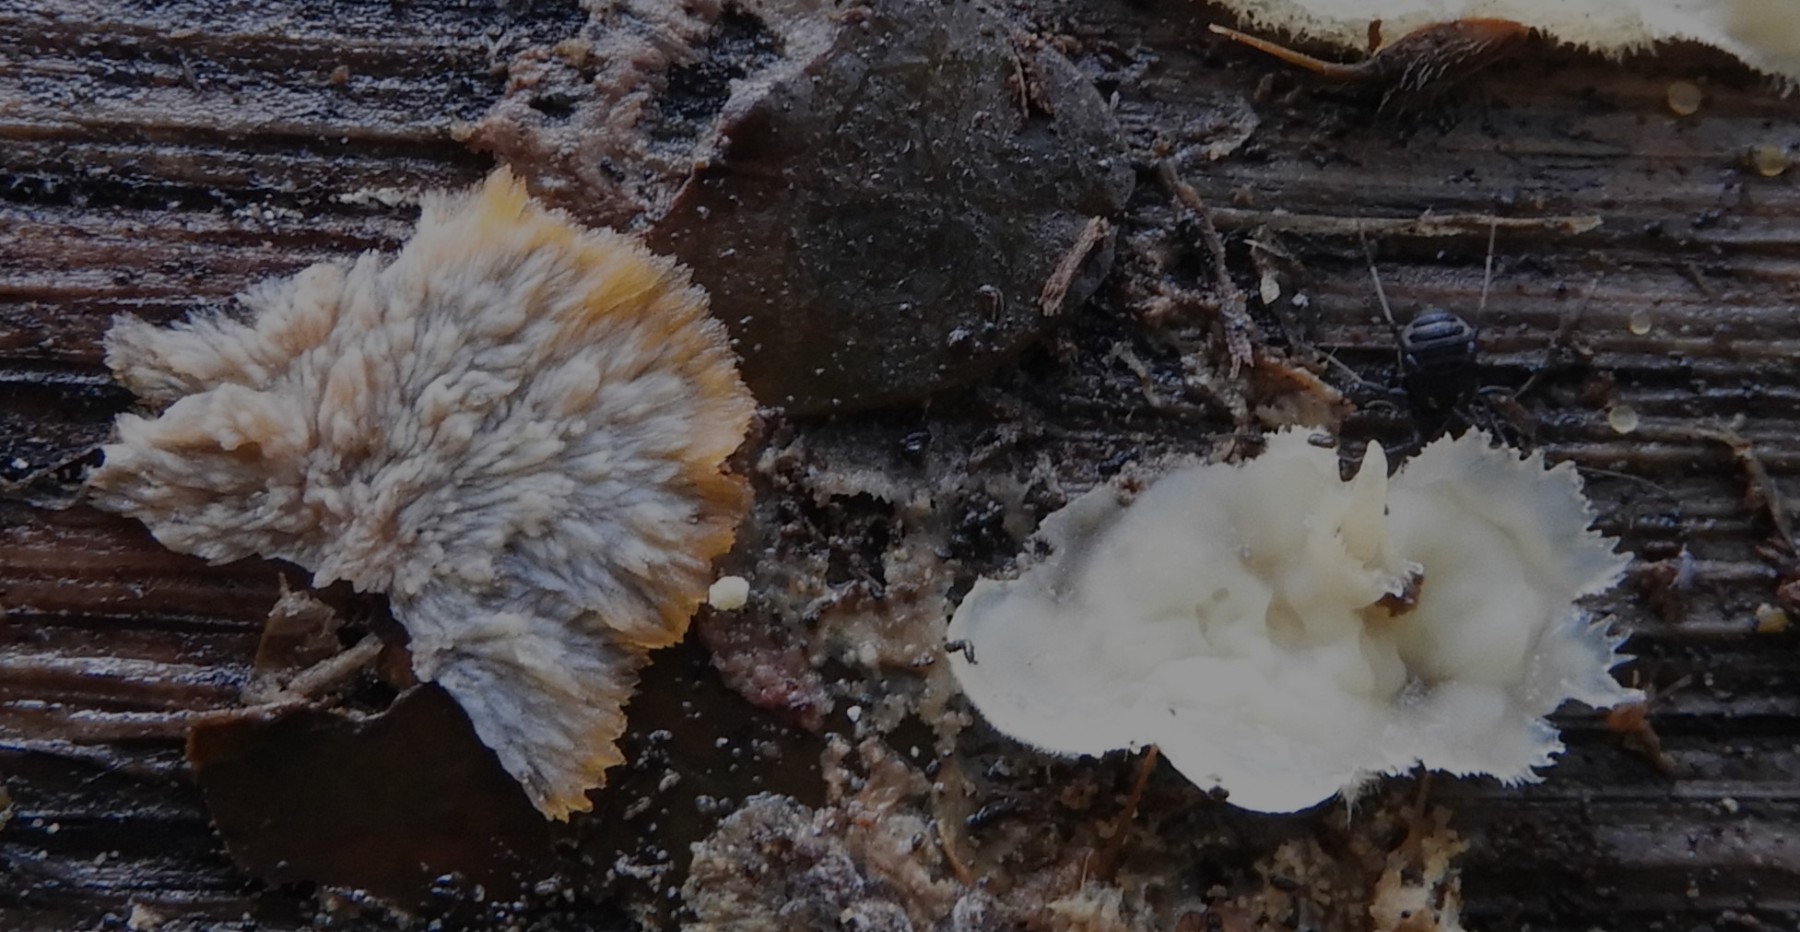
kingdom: Fungi
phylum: Basidiomycota
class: Agaricomycetes
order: Polyporales
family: Meruliaceae
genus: Phlebia
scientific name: Phlebia tremellosa
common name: bævrende åresvamp
